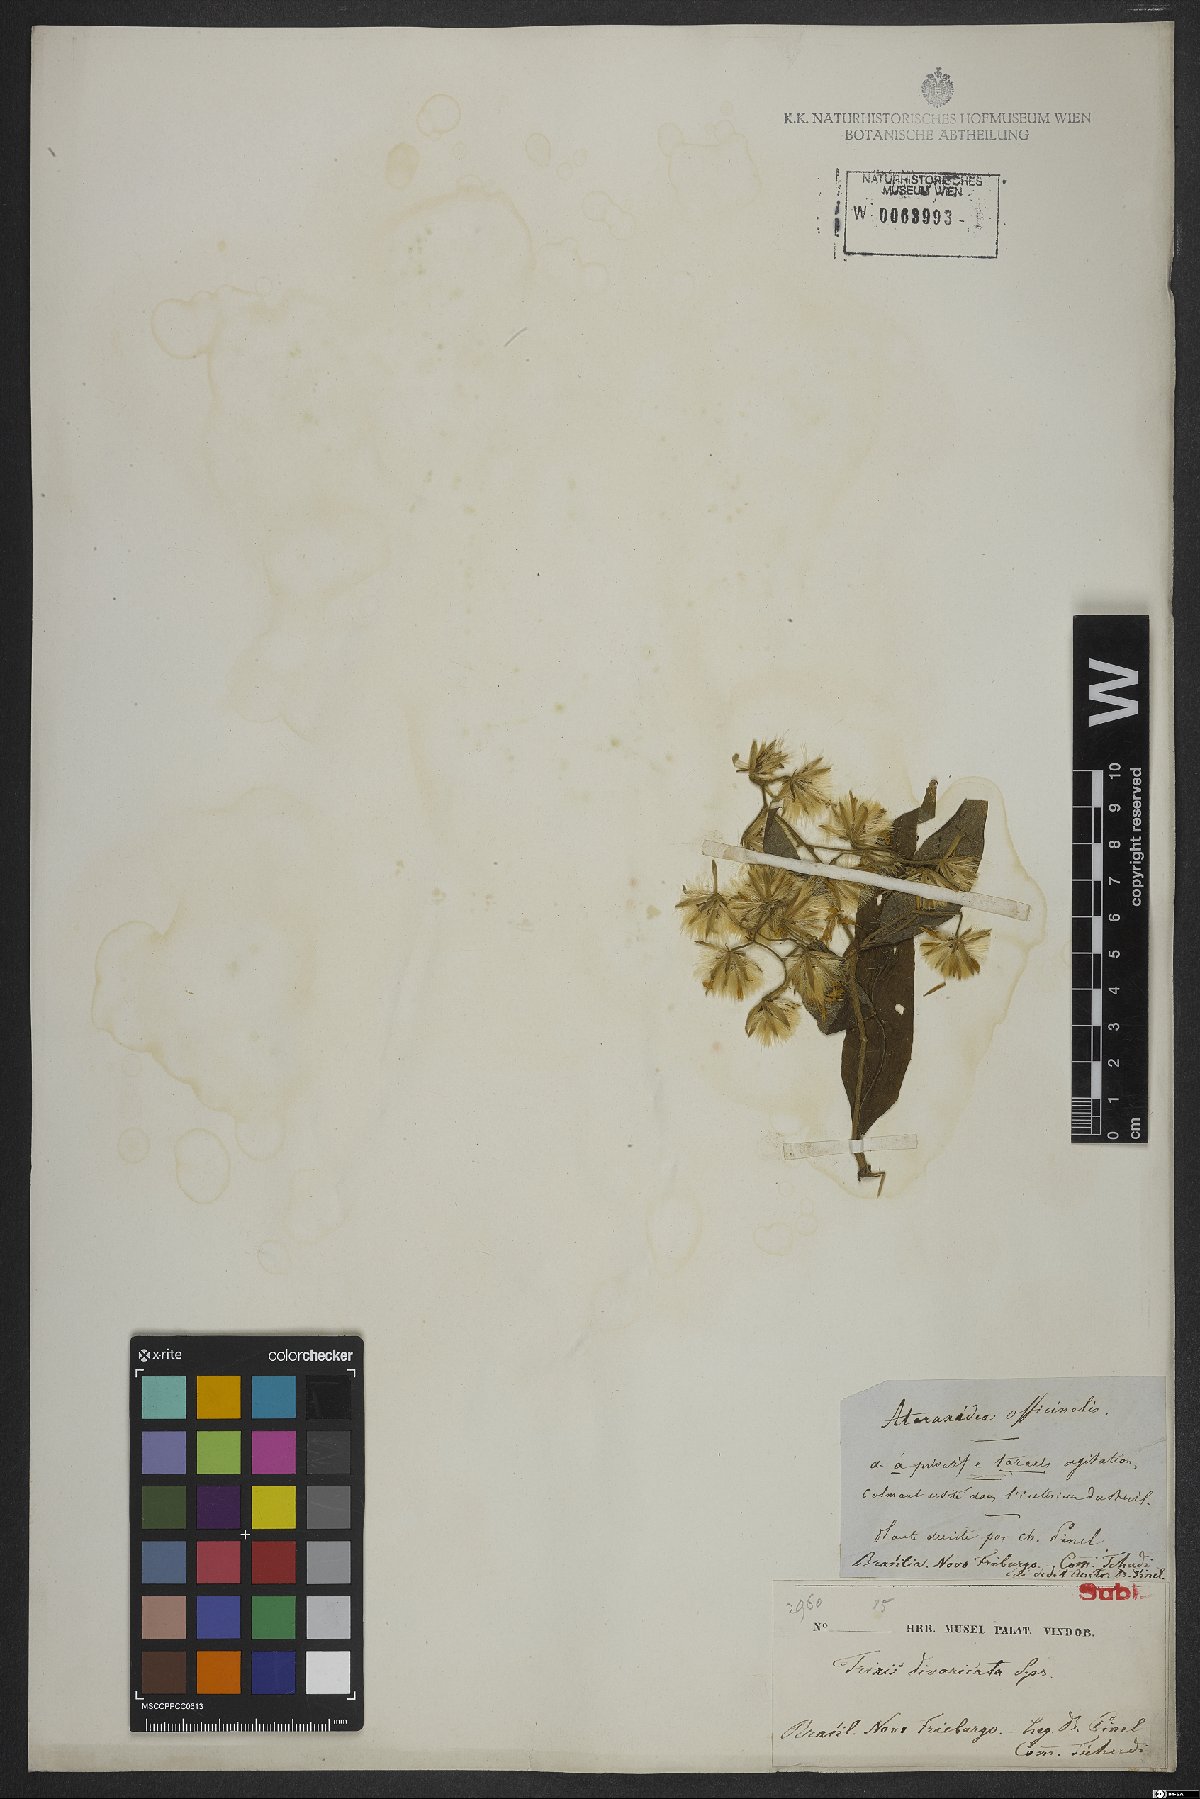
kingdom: Plantae
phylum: Tracheophyta
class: Magnoliopsida
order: Asterales
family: Asteraceae
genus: Trixis
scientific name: Trixis divaricata
